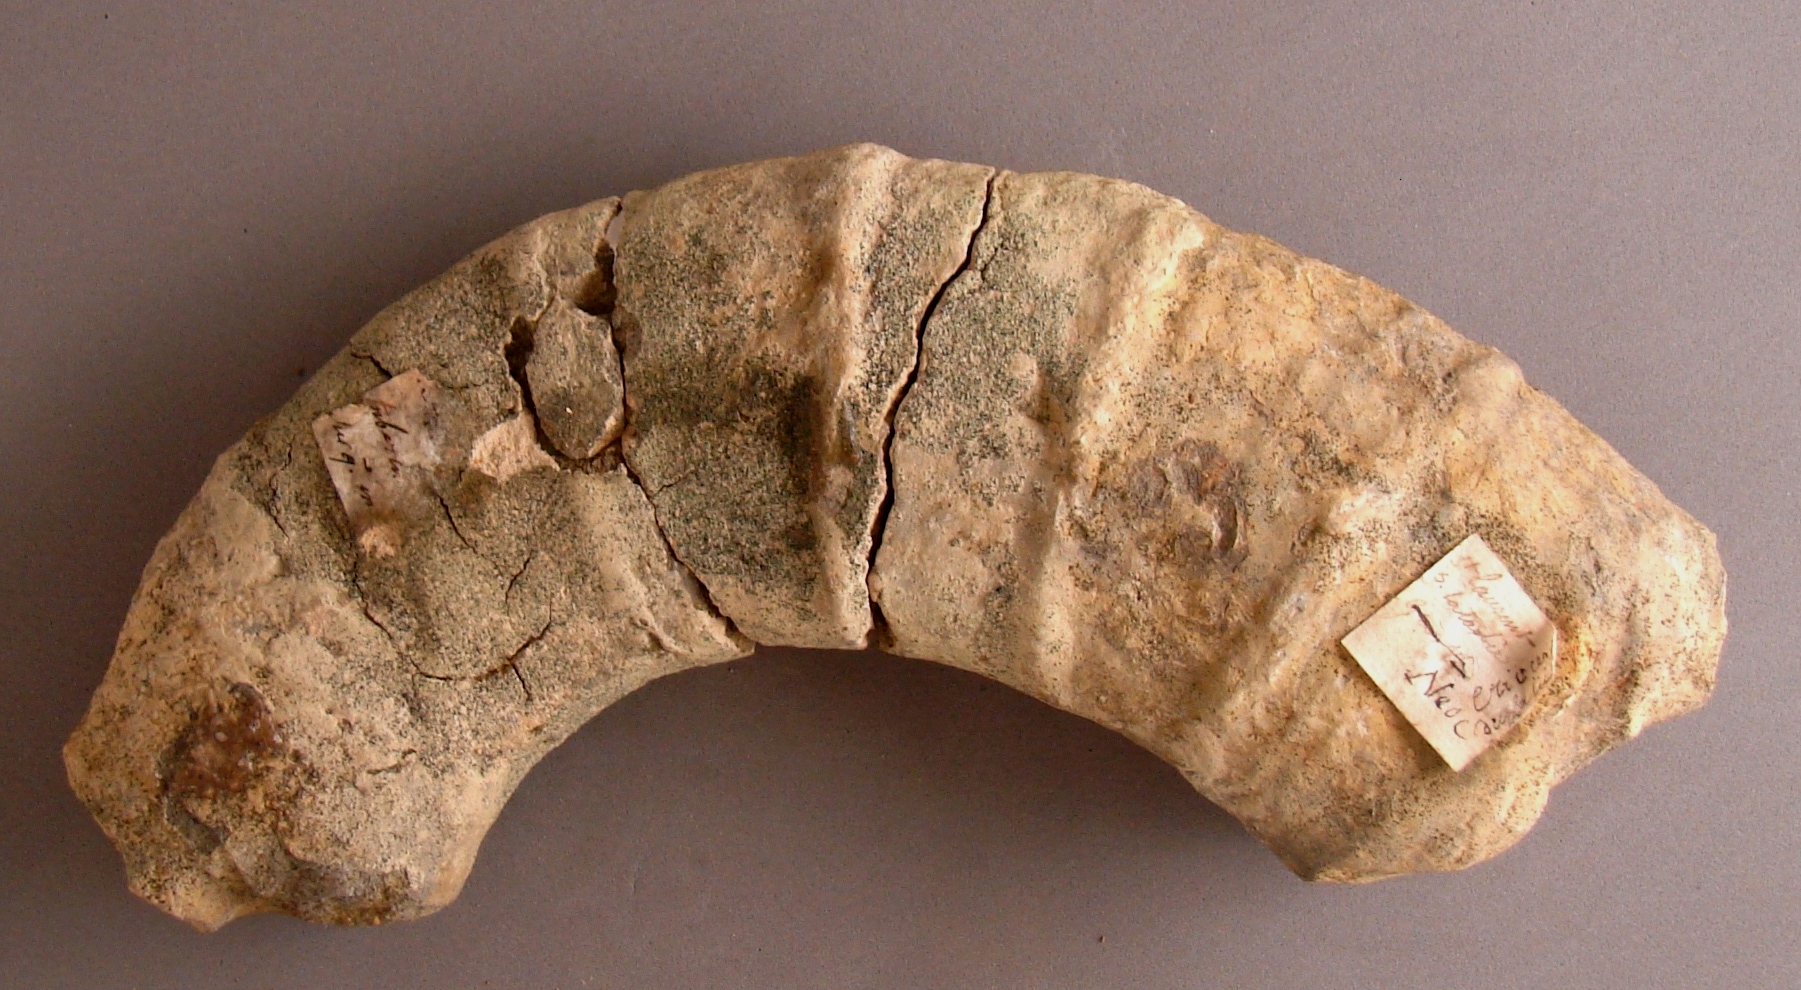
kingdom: Animalia
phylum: Mollusca
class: Cephalopoda
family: Ancyloceratidae
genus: Crioceratites
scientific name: Crioceratites duvalii
